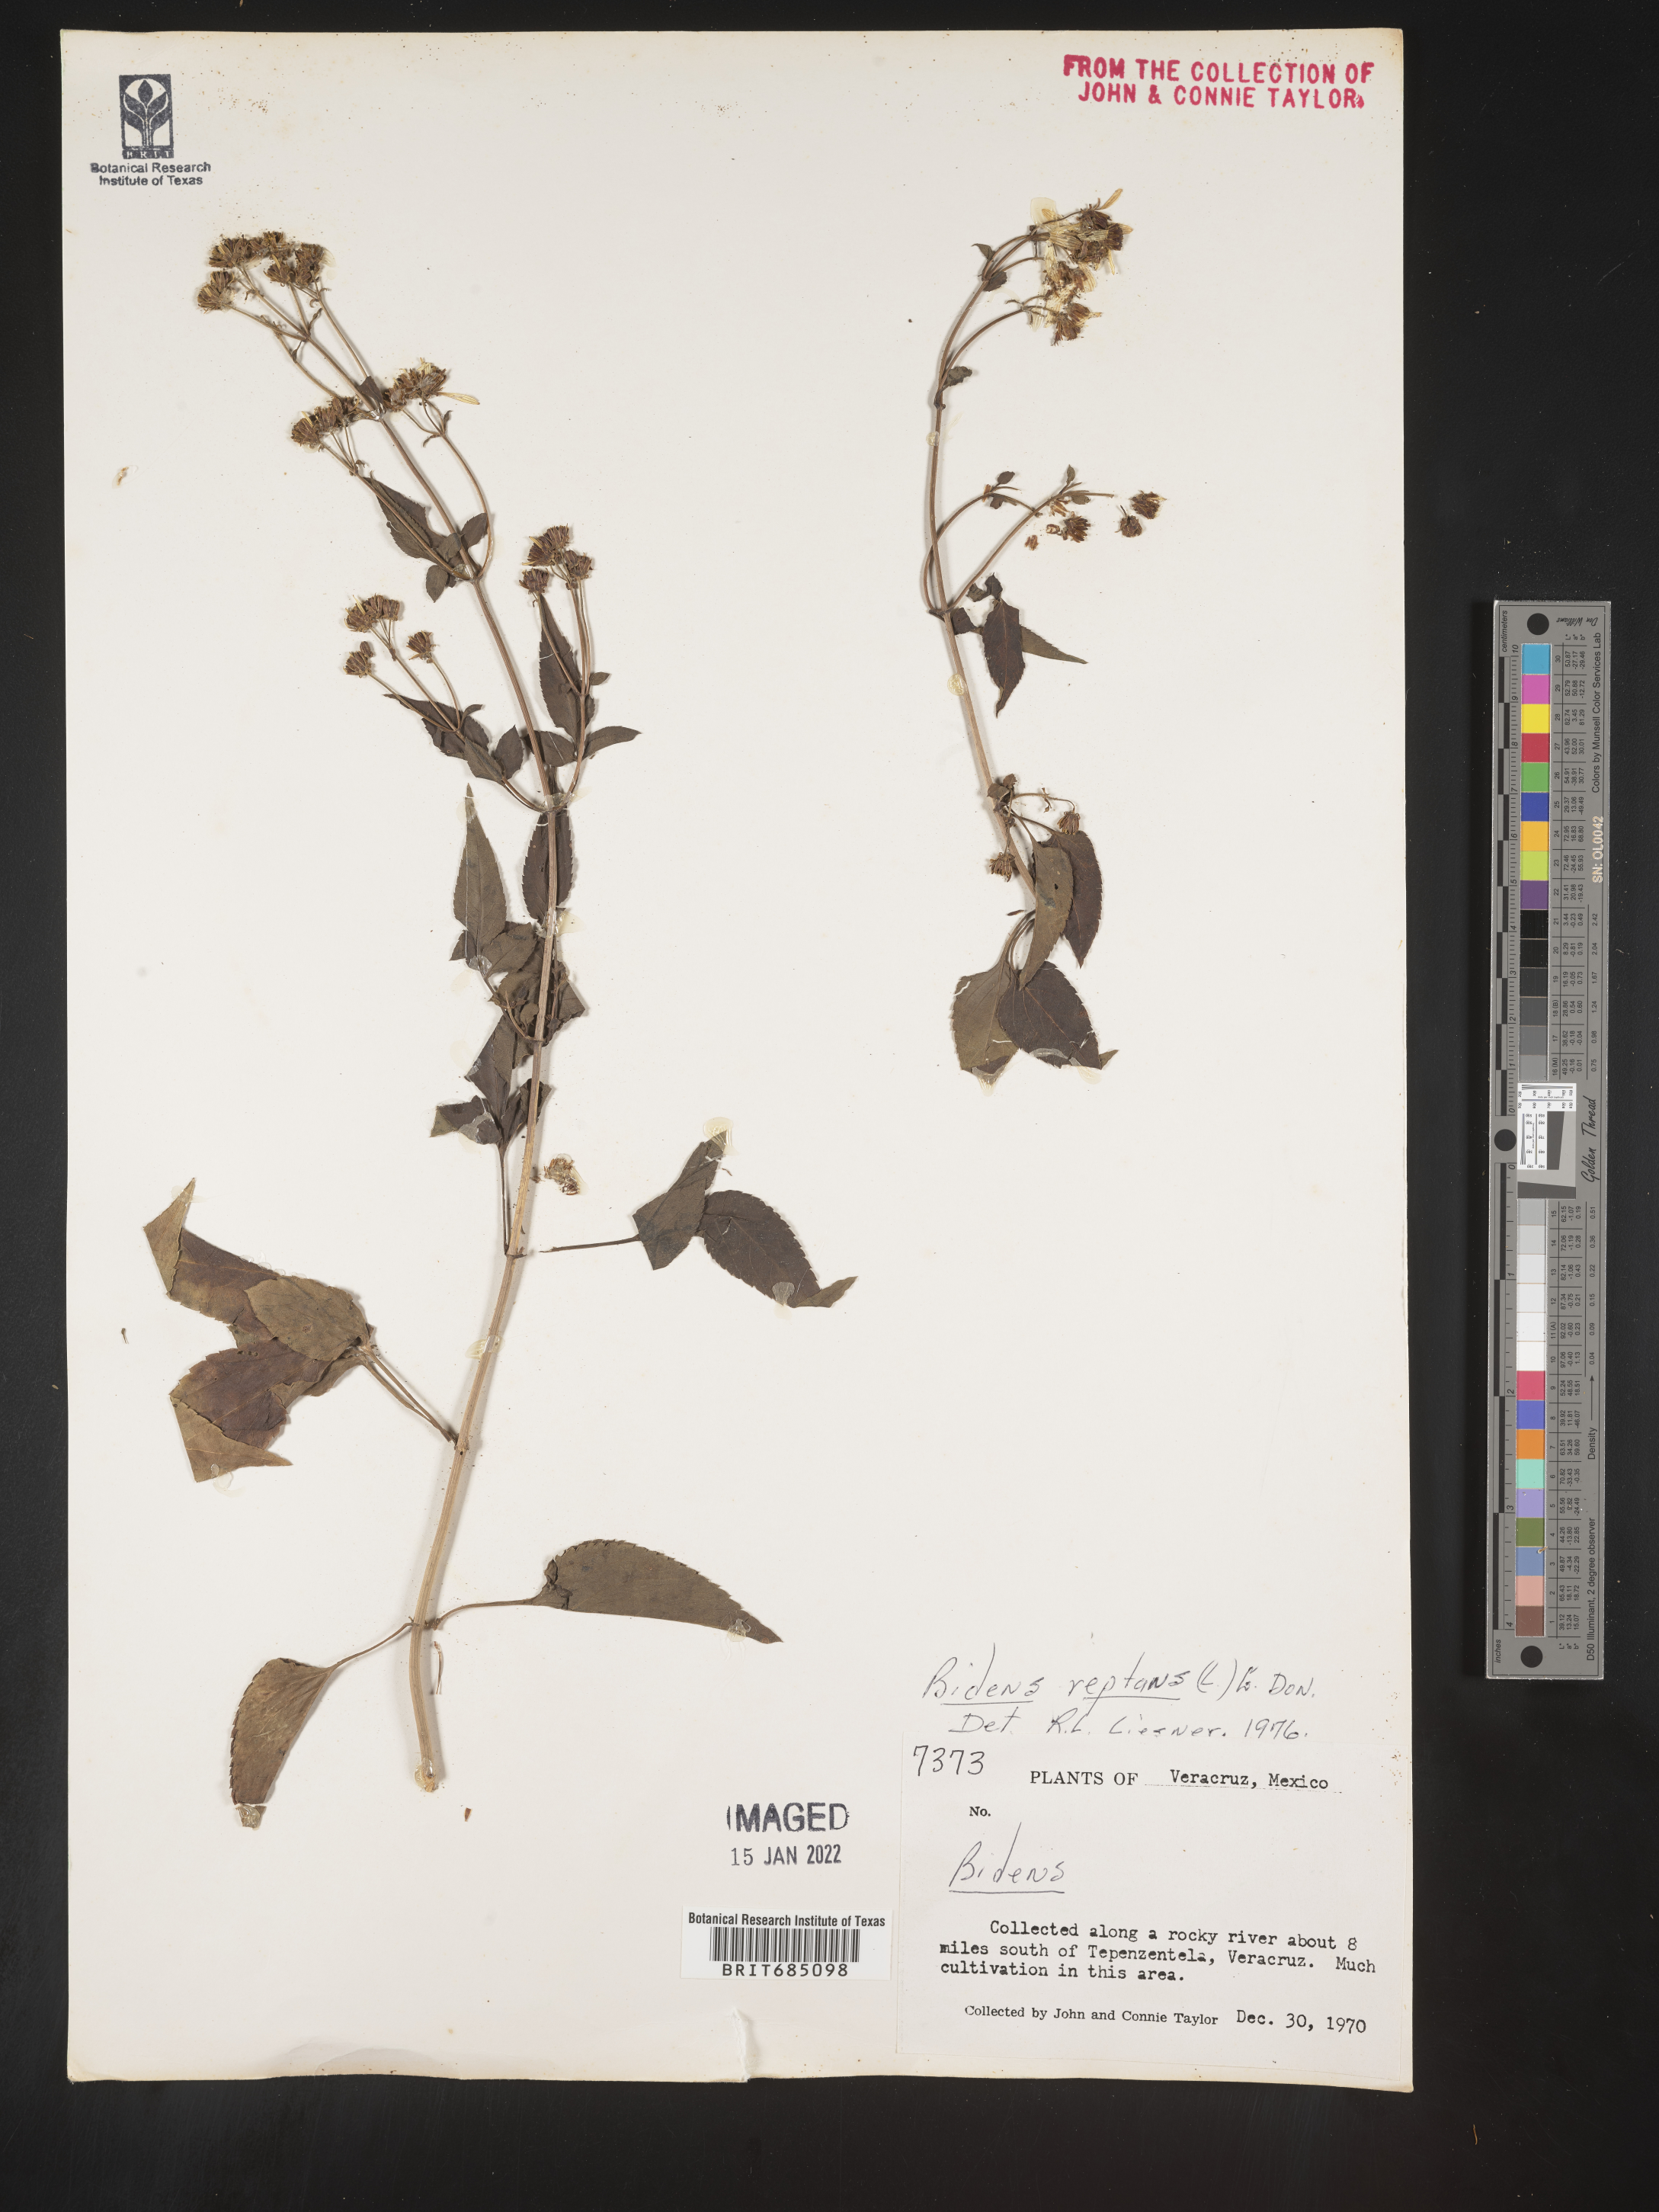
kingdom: Plantae
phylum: Tracheophyta
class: Magnoliopsida
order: Asterales
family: Asteraceae
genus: Bidens
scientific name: Bidens
